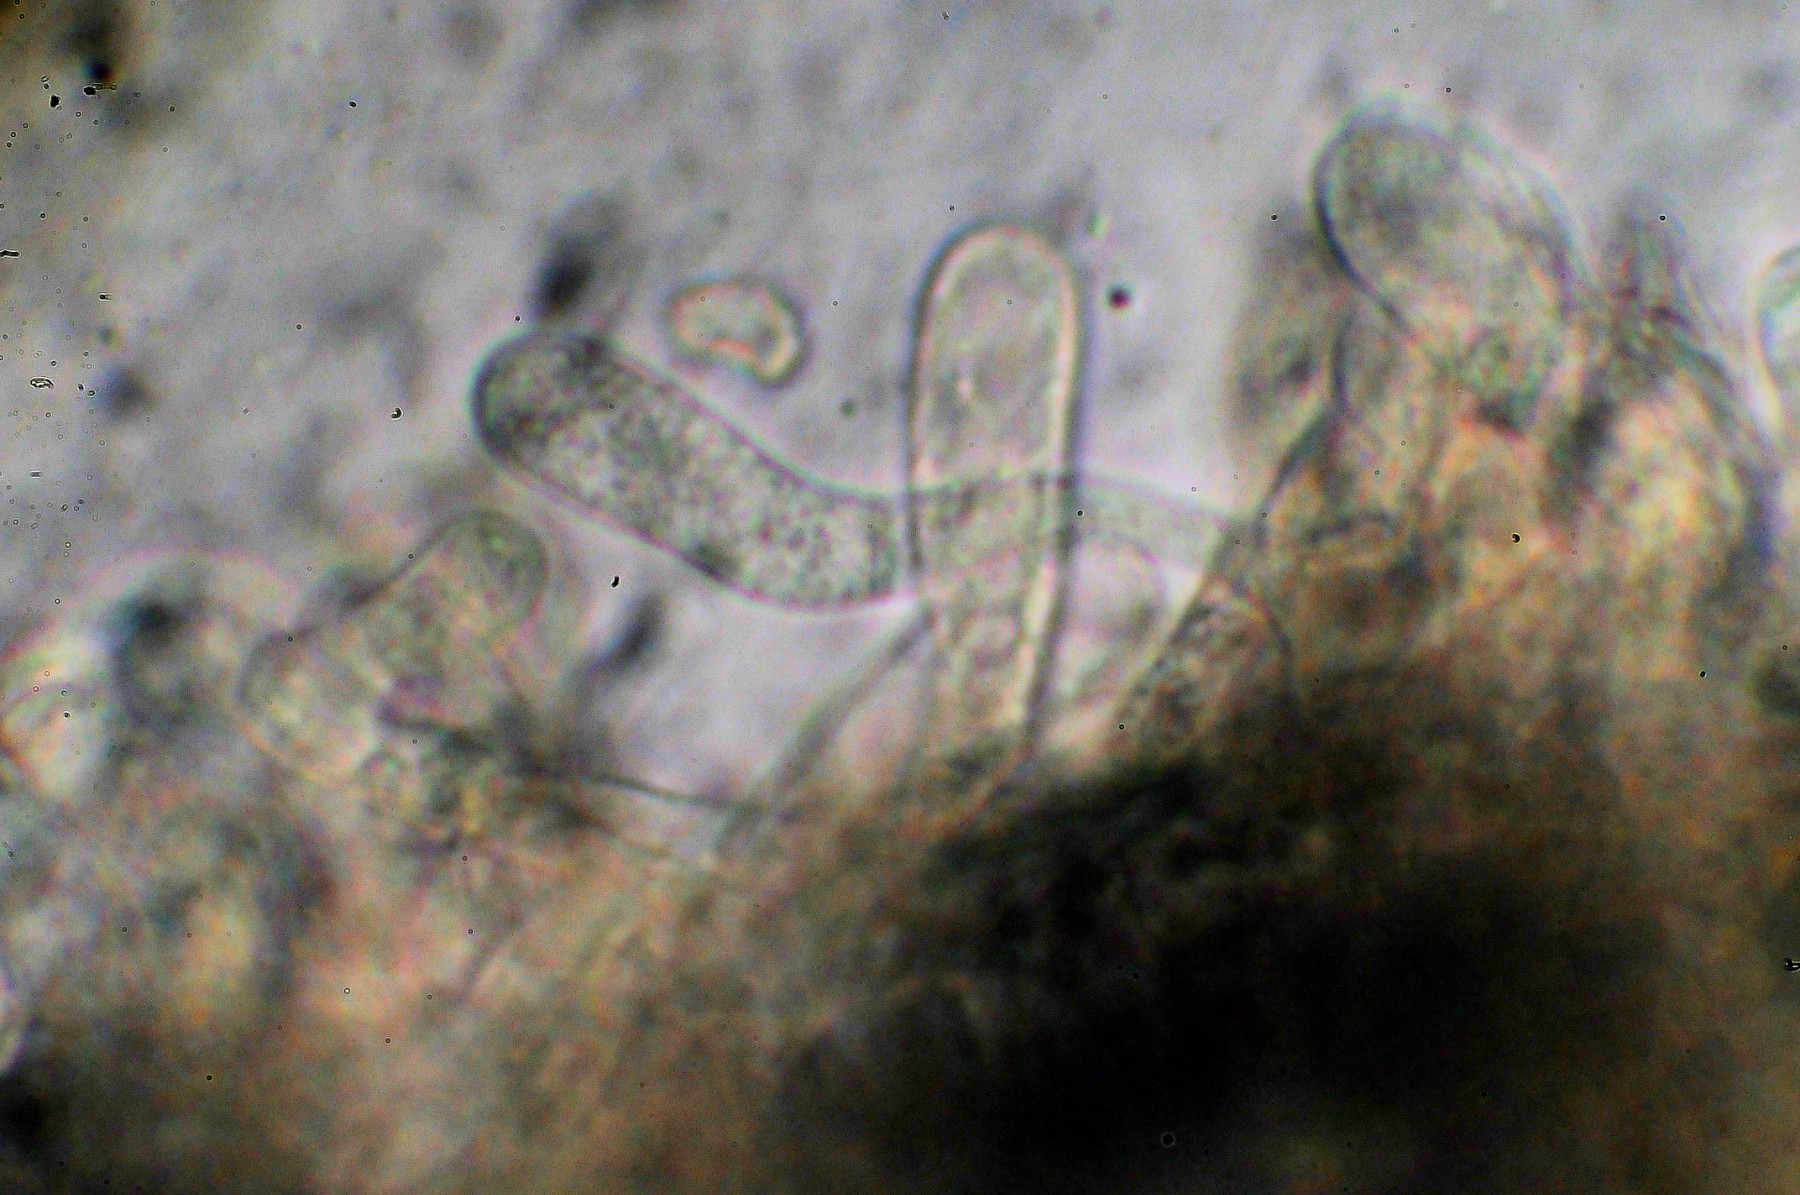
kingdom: Fungi
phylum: Basidiomycota
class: Agaricomycetes
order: Agaricales
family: Entolomataceae
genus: Entoloma
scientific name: Entoloma atrocoeruleum
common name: sortblå rødblad
